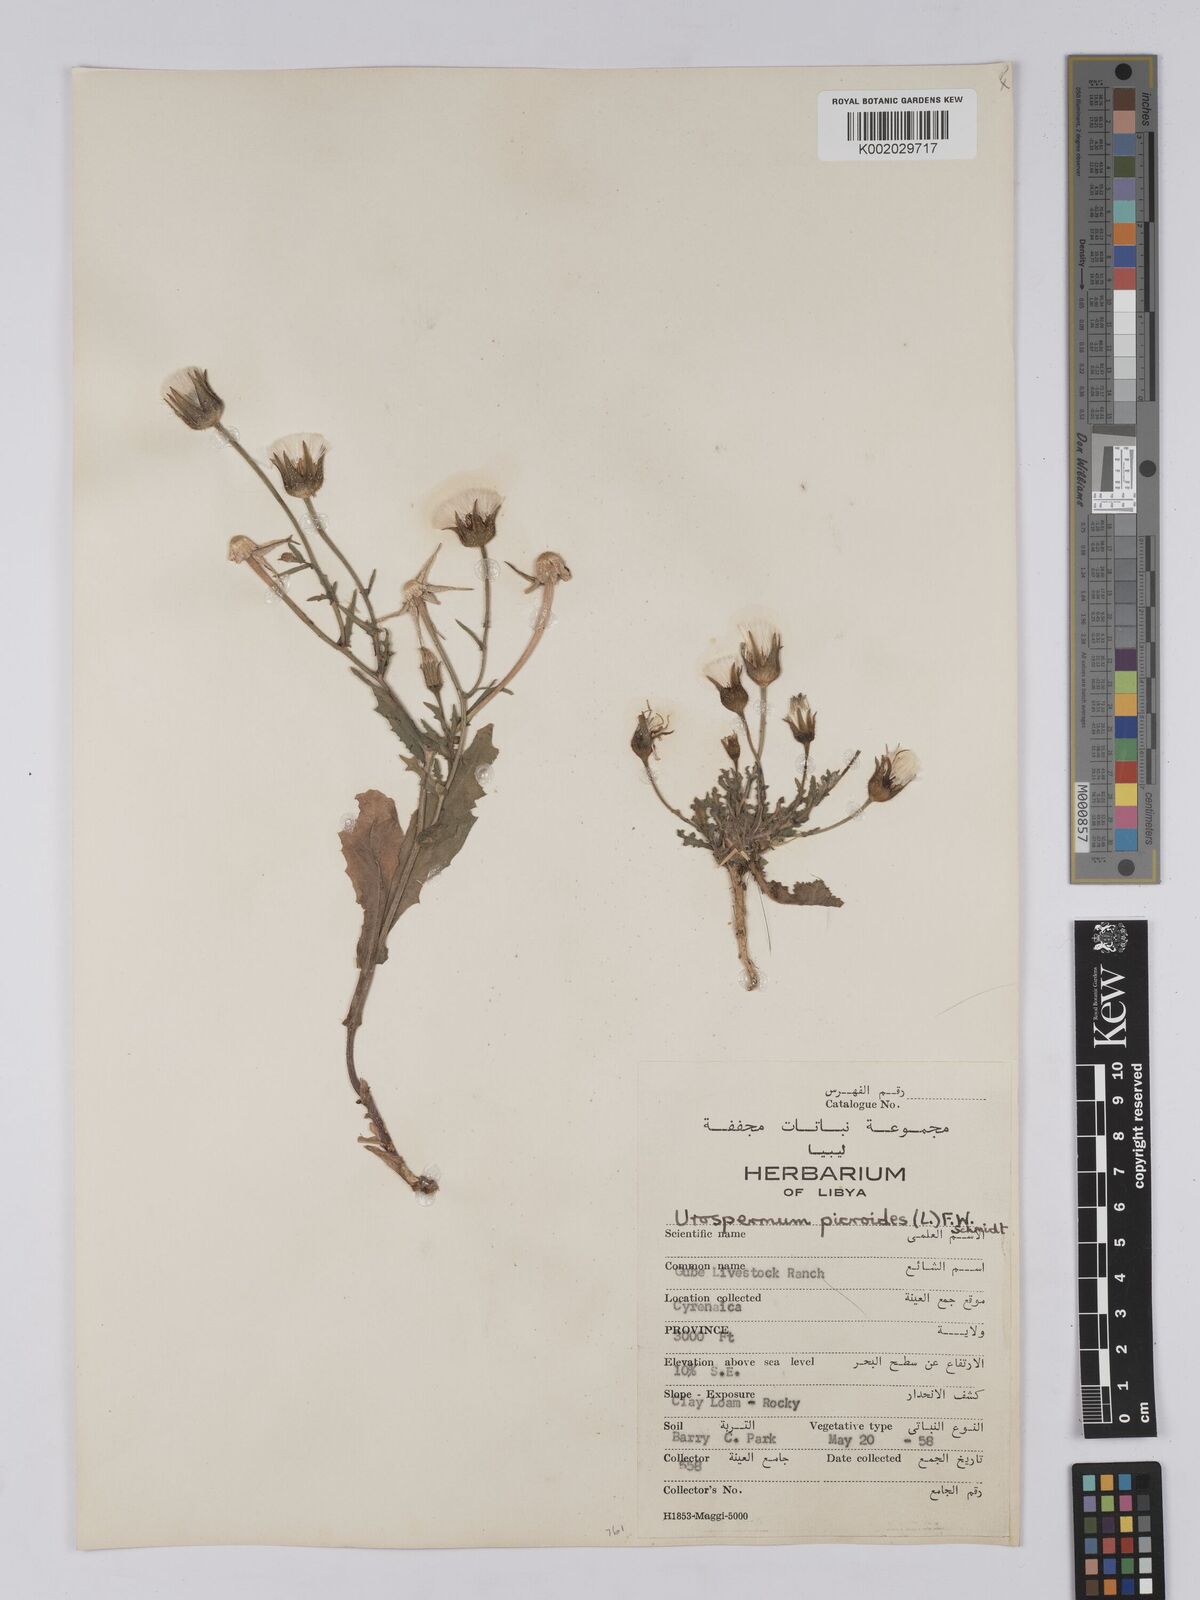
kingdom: Plantae
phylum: Tracheophyta
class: Magnoliopsida
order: Asterales
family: Asteraceae
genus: Urospermum
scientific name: Urospermum picroides
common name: False hawkbit
